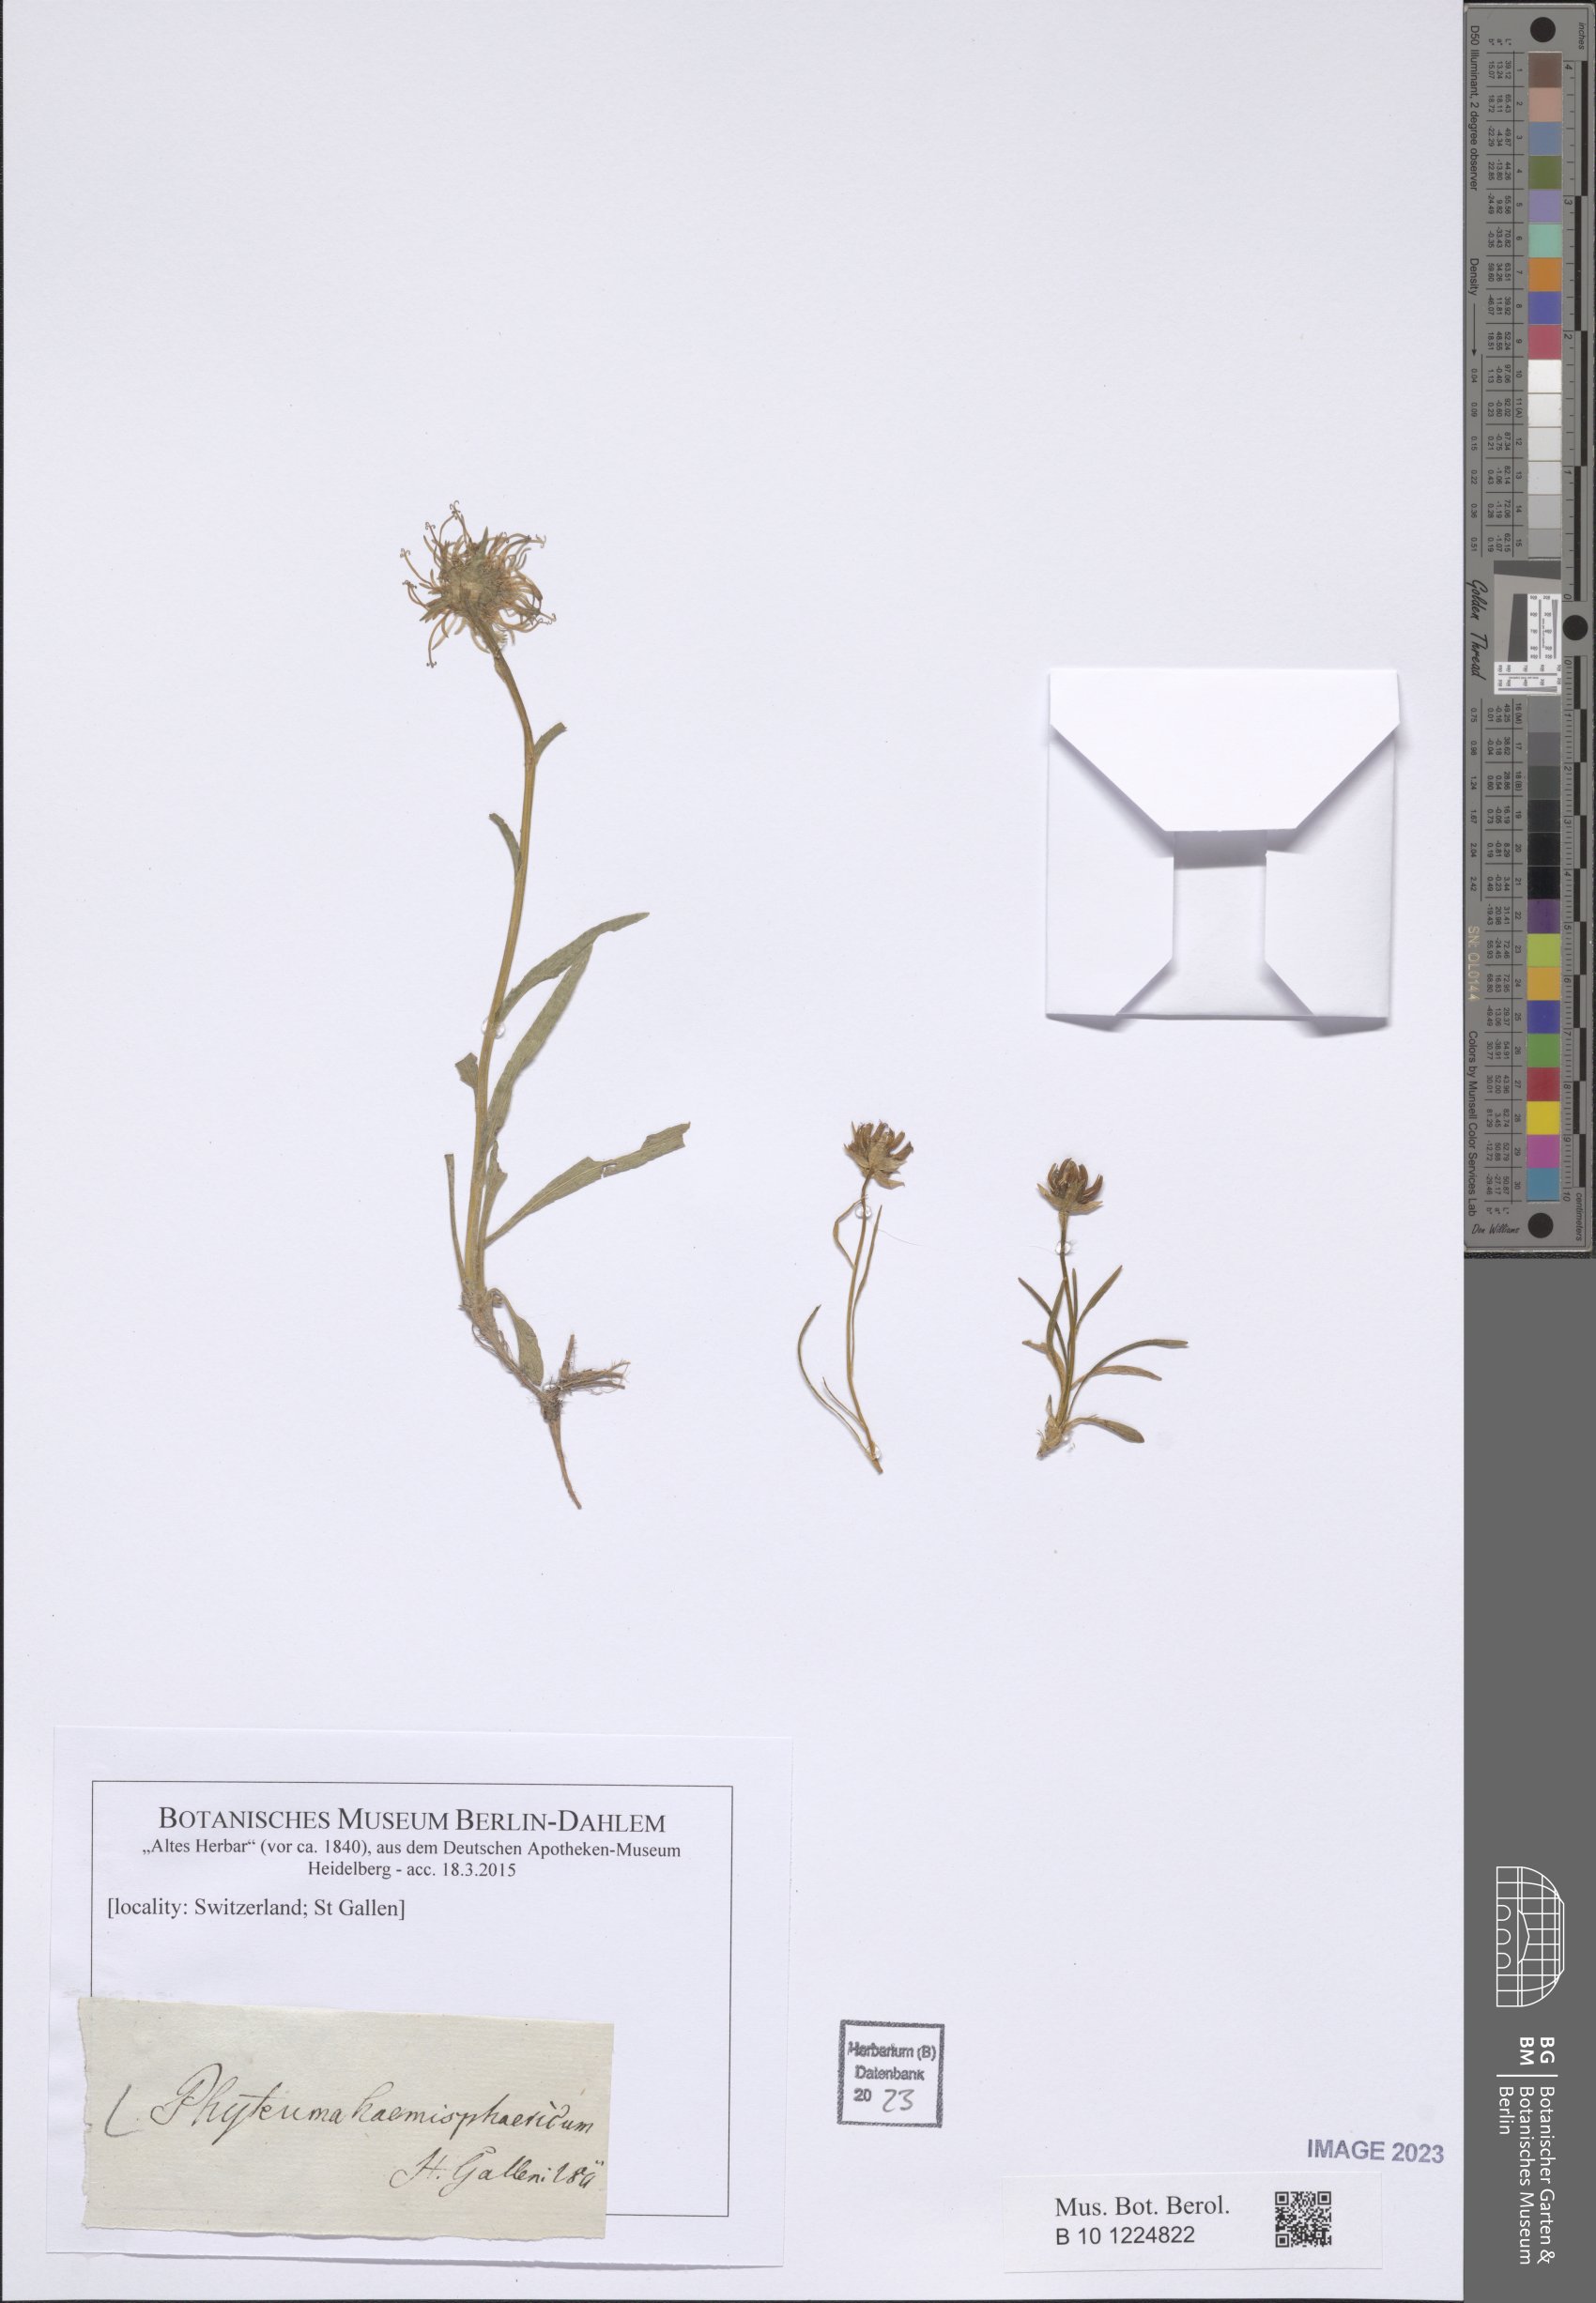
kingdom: Plantae
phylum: Tracheophyta
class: Magnoliopsida
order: Asterales
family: Campanulaceae
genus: Phyteuma
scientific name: Phyteuma hemisphaericum
